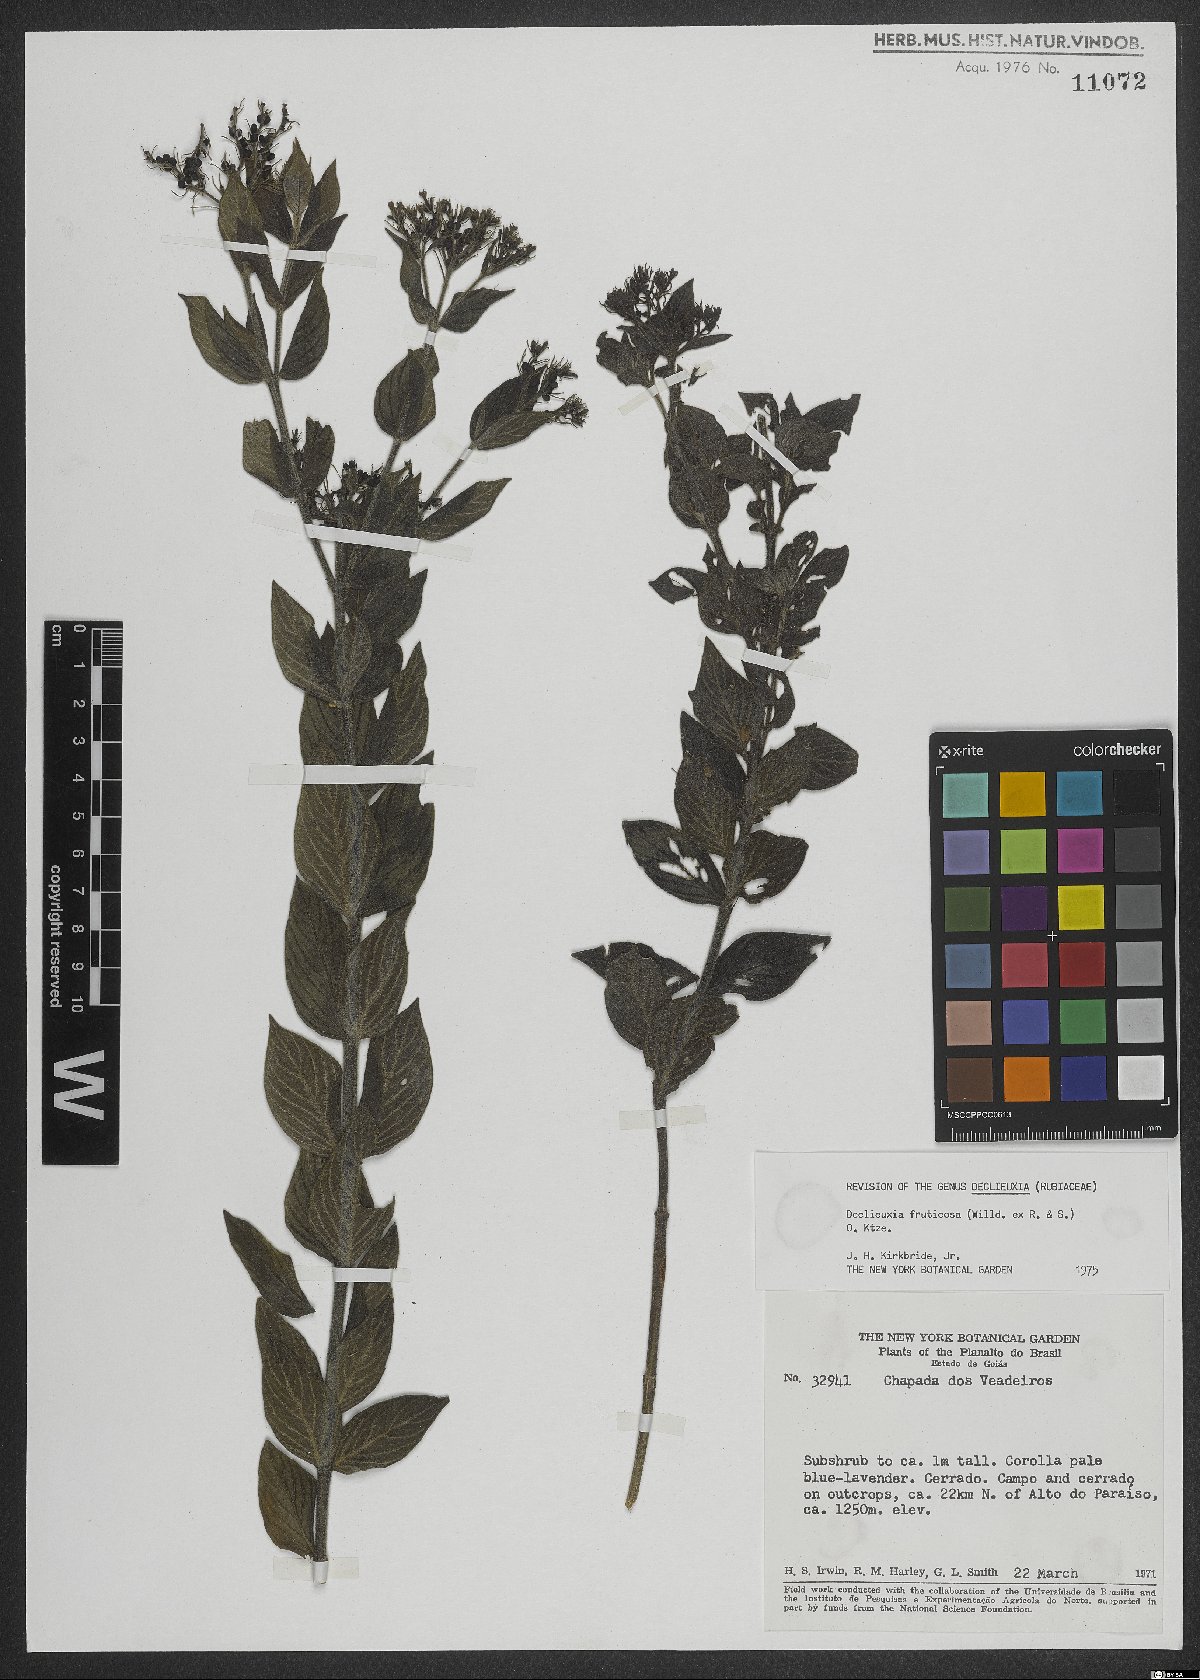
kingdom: Plantae
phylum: Tracheophyta
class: Magnoliopsida
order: Gentianales
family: Rubiaceae
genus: Declieuxia
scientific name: Declieuxia fruticosa
